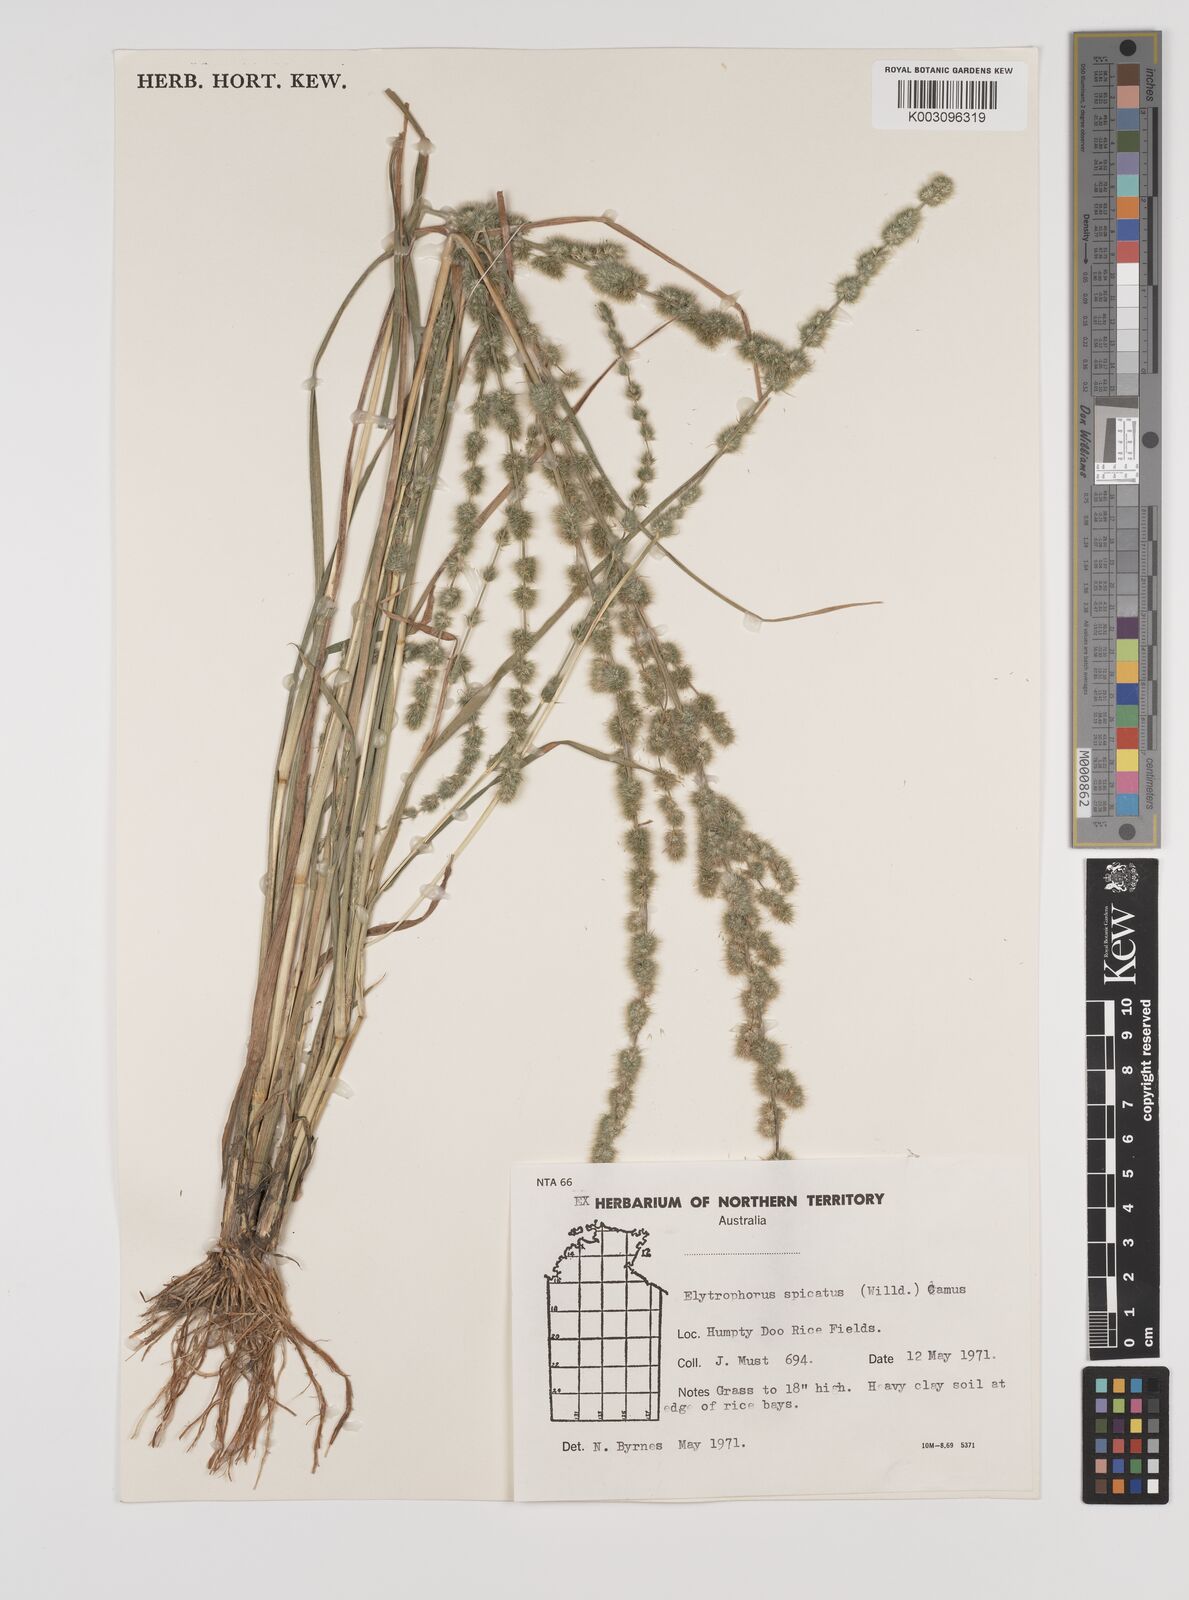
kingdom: Plantae
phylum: Tracheophyta
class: Liliopsida
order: Poales
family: Poaceae
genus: Elytrophorus
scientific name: Elytrophorus spicatus
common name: Spike grass
